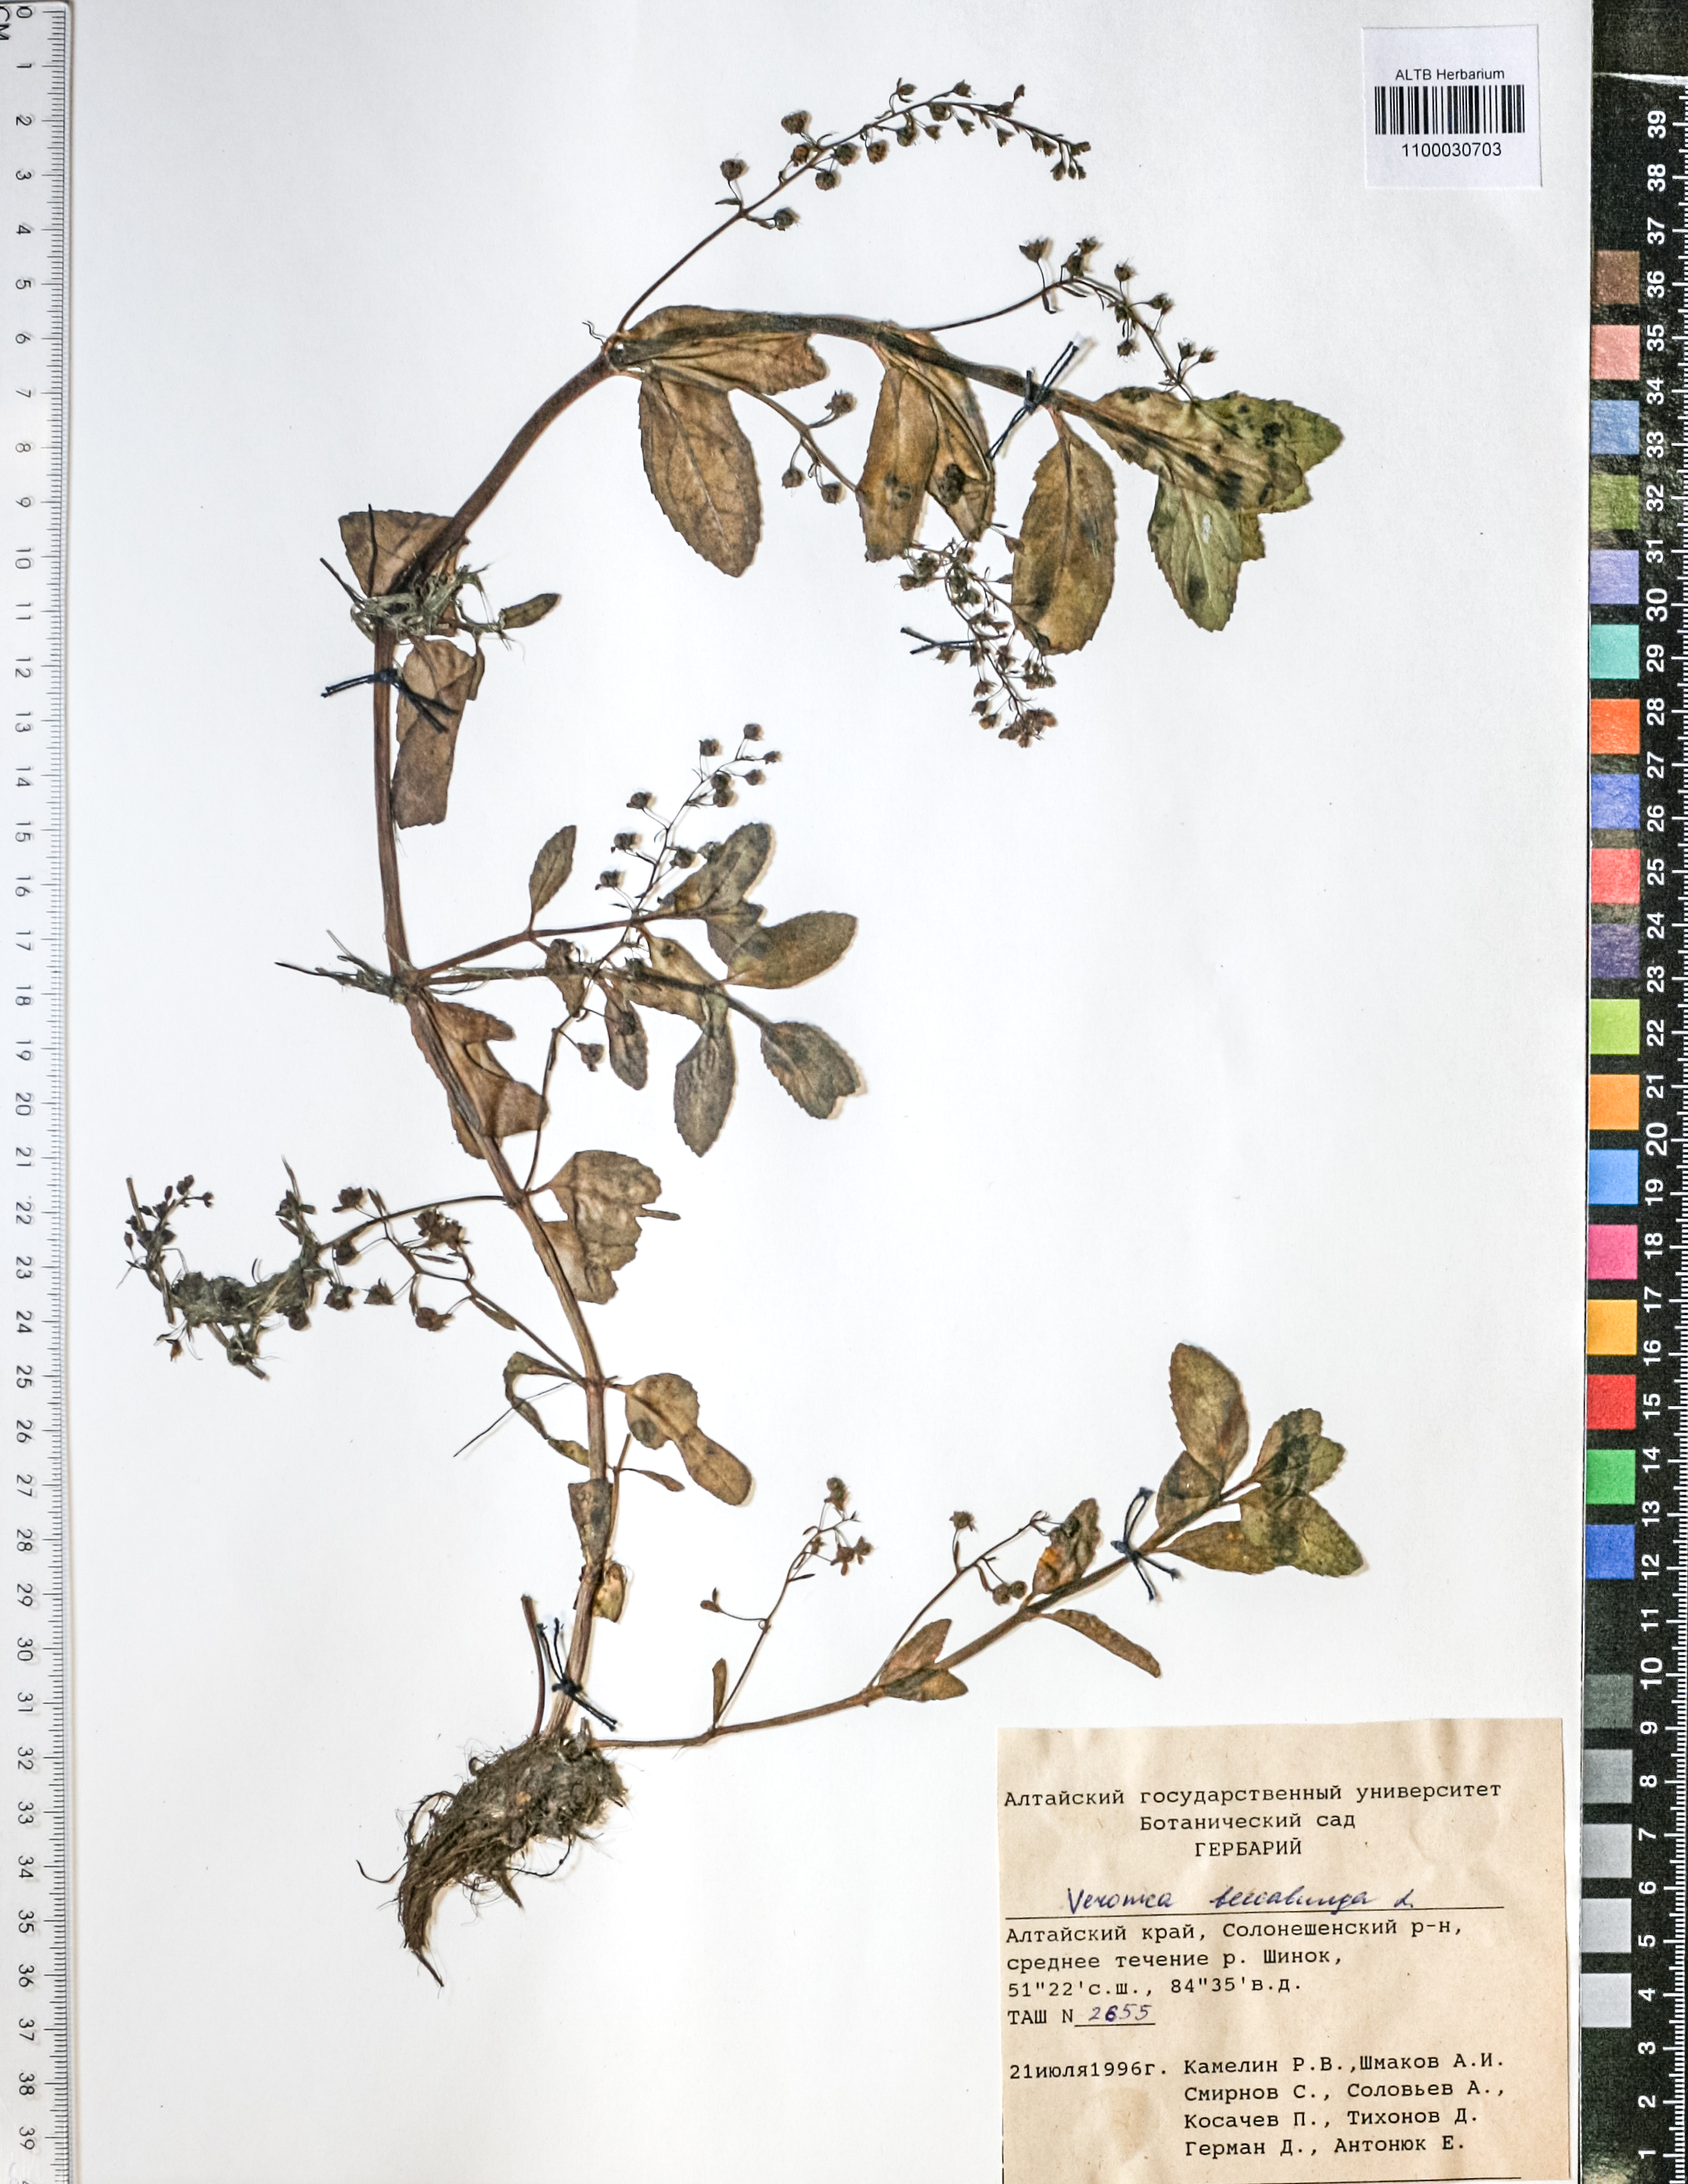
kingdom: Plantae
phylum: Tracheophyta
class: Magnoliopsida
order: Lamiales
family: Plantaginaceae
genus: Veronica
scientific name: Veronica beccabunga
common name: Brooklime
